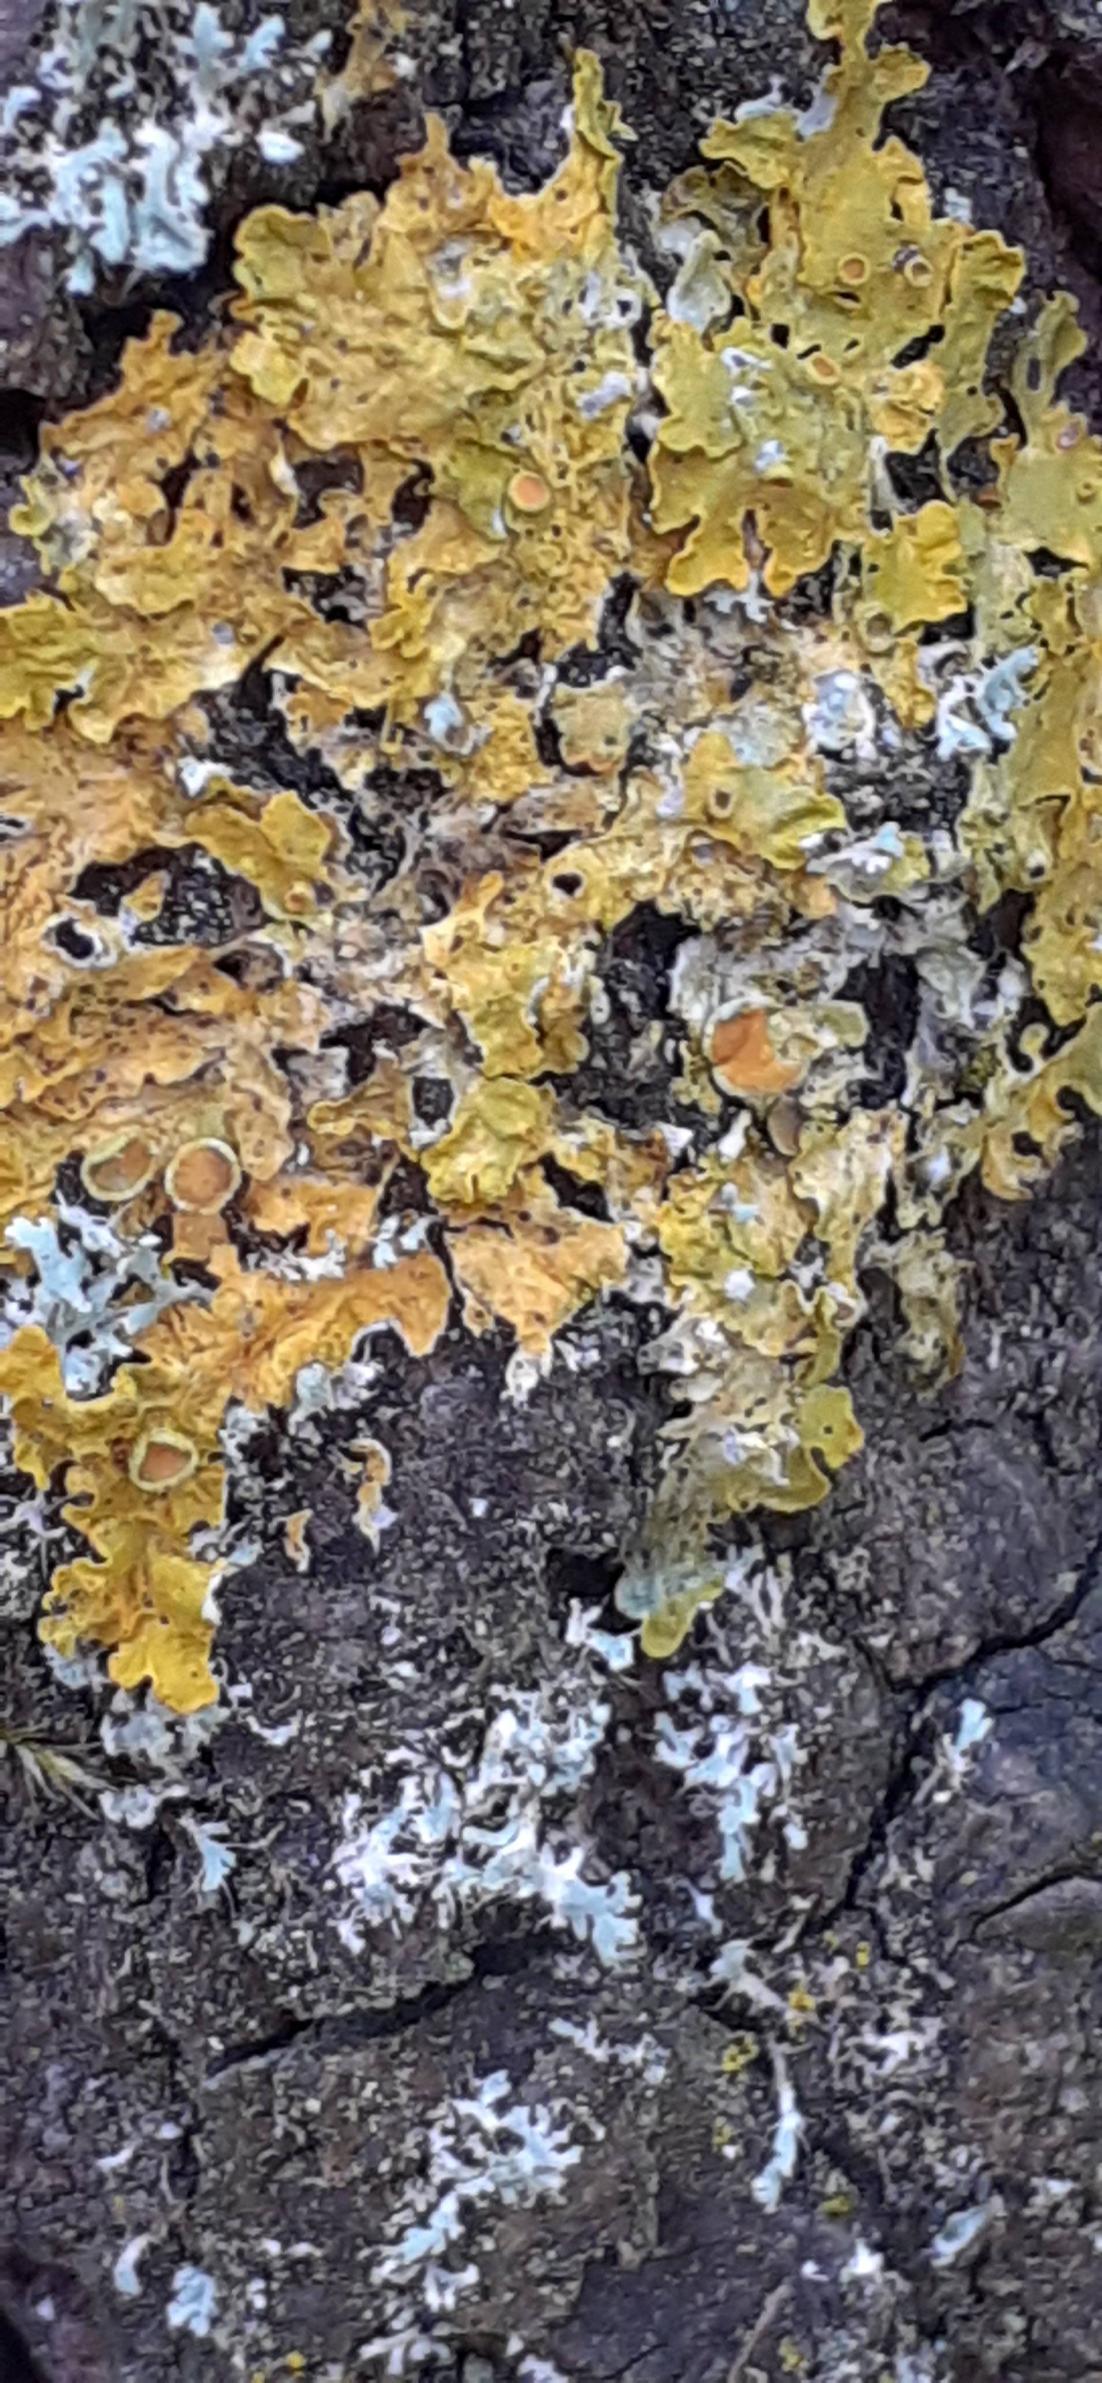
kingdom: Fungi
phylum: Ascomycota
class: Lecanoromycetes
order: Teloschistales
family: Teloschistaceae
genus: Xanthoria
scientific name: Xanthoria parietina
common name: Almindelig væggelav
